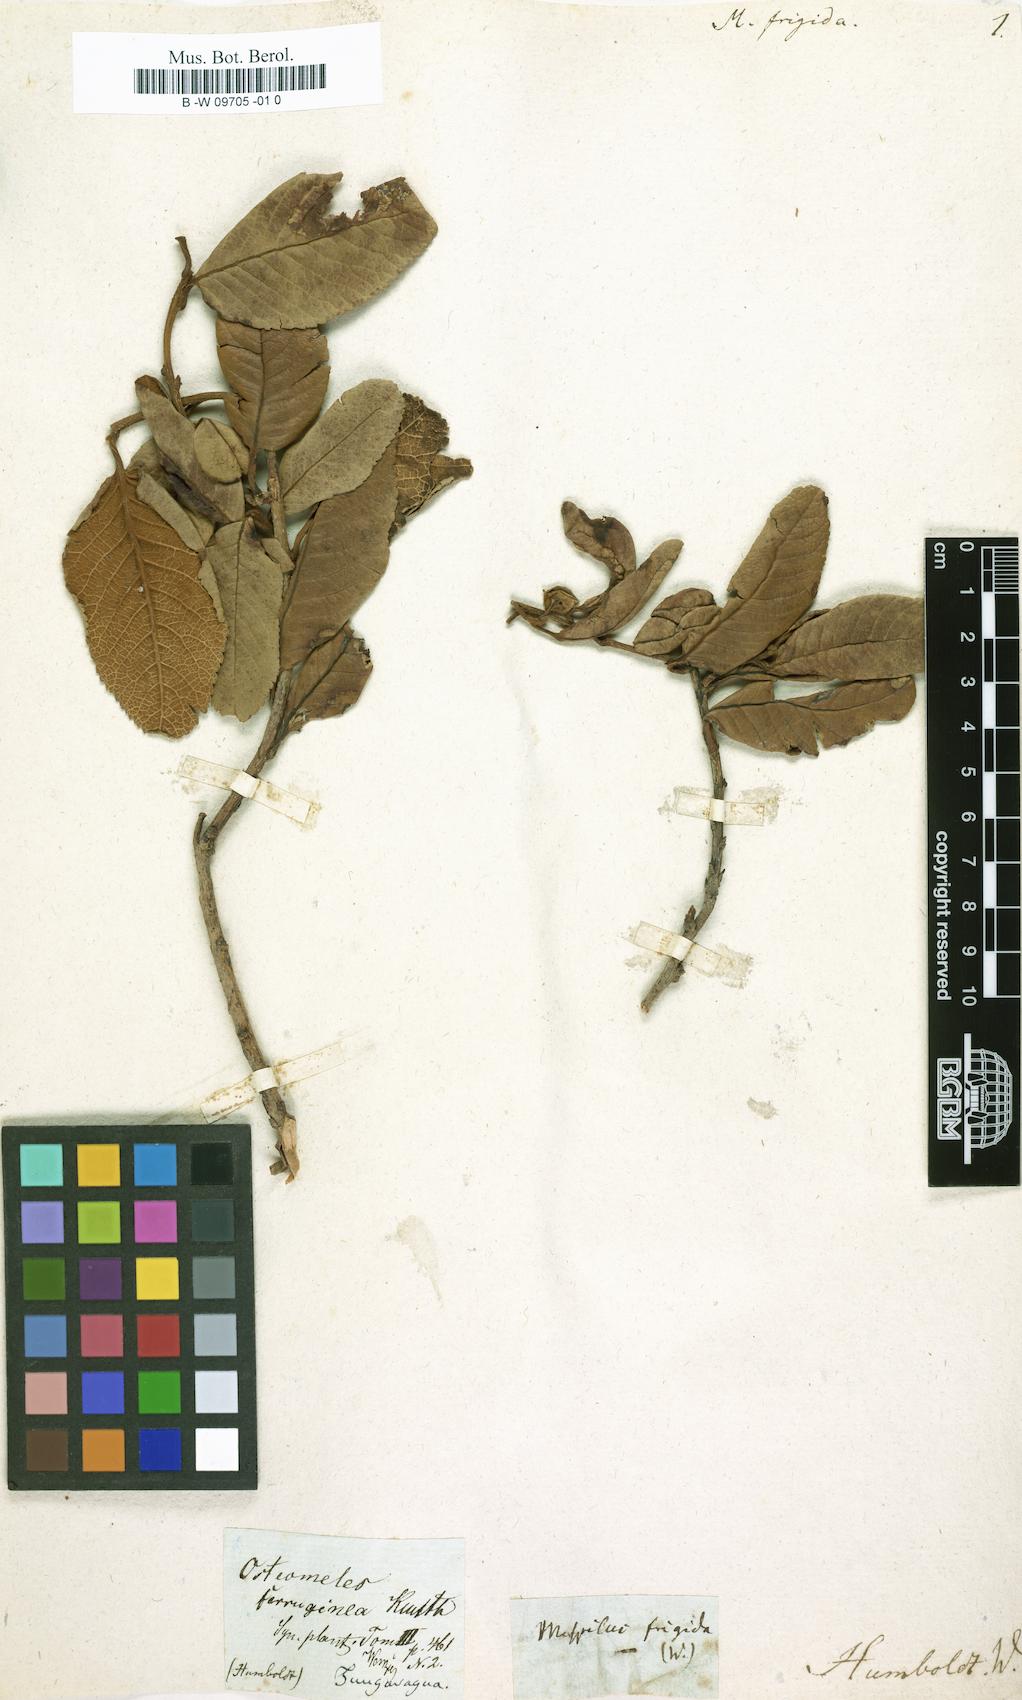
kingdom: Plantae
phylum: Tracheophyta
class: Magnoliopsida
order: Rosales
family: Rosaceae
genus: Mespilus
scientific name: Mespilus
